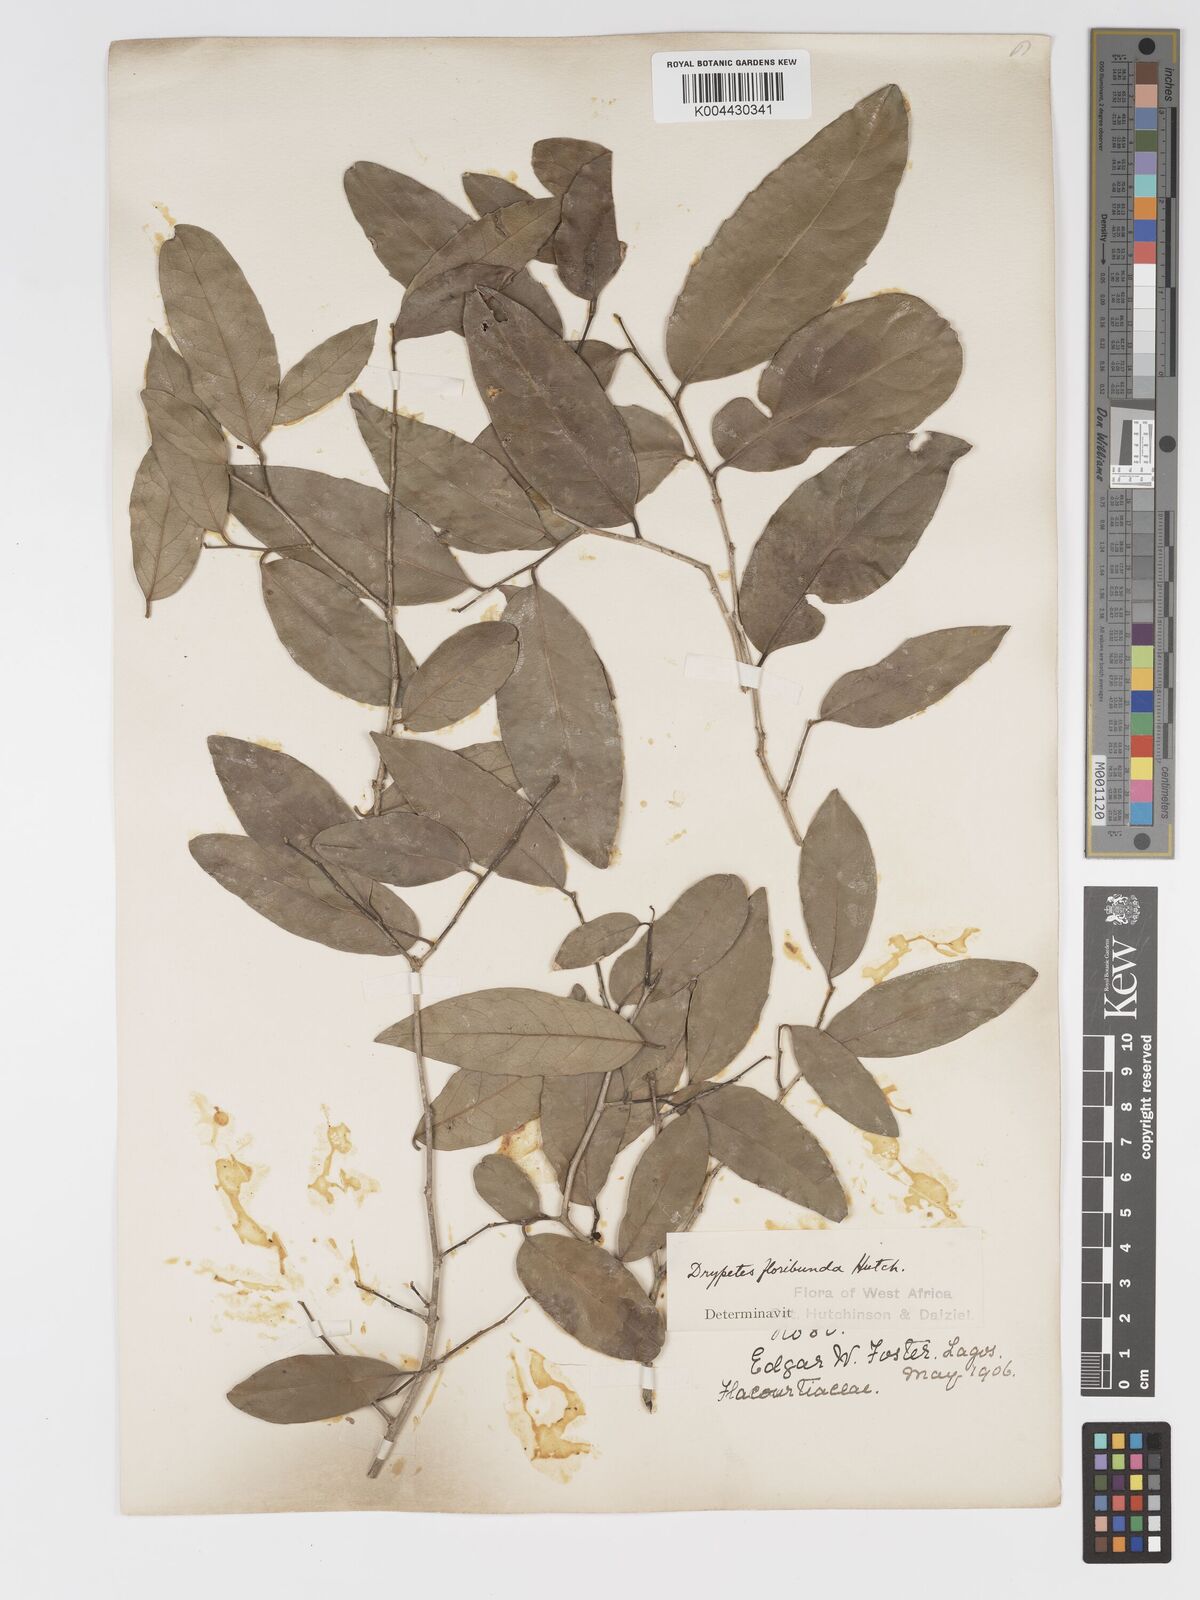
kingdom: Plantae
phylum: Tracheophyta
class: Magnoliopsida
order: Malpighiales
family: Putranjivaceae
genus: Drypetes
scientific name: Drypetes floribunda
